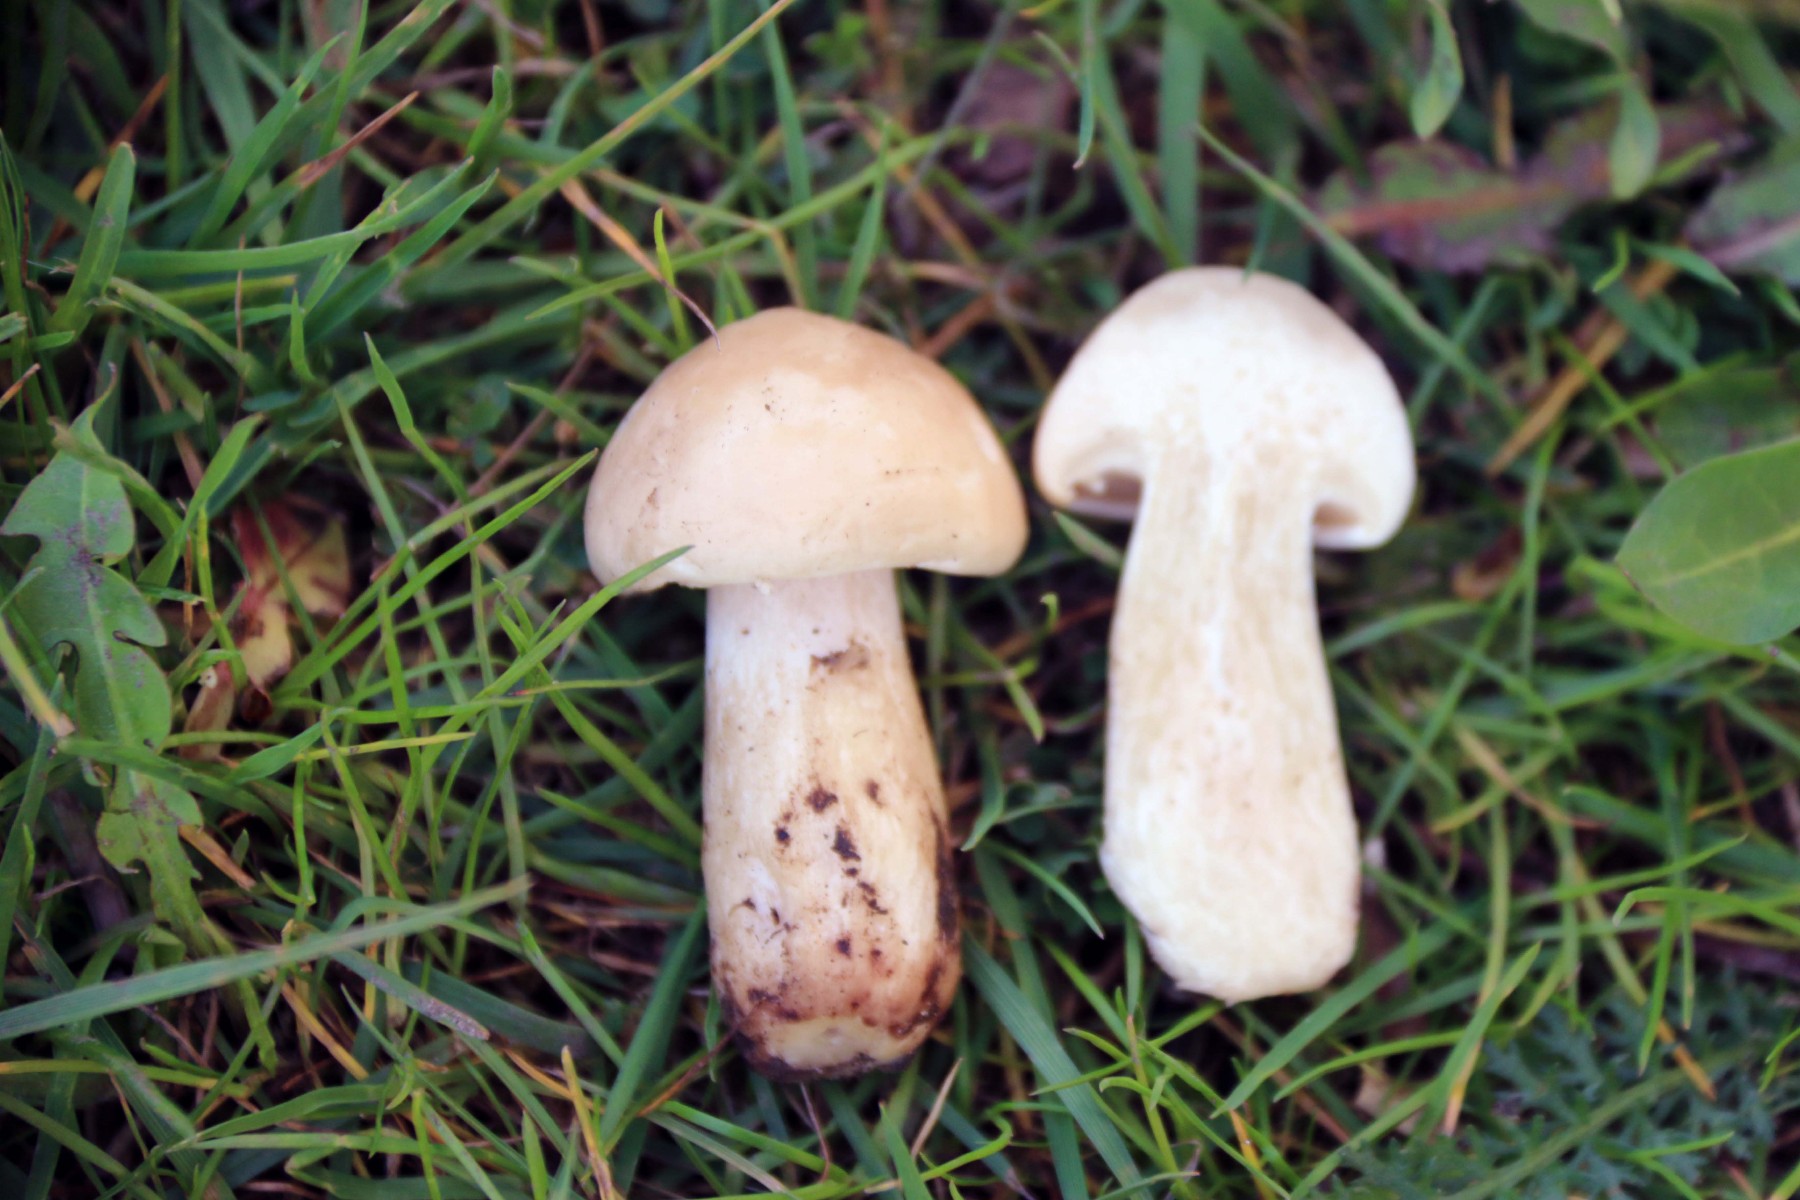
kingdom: Fungi
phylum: Basidiomycota
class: Agaricomycetes
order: Agaricales
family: Lyophyllaceae
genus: Calocybe
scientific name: Calocybe gambosa
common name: vårmusseron
